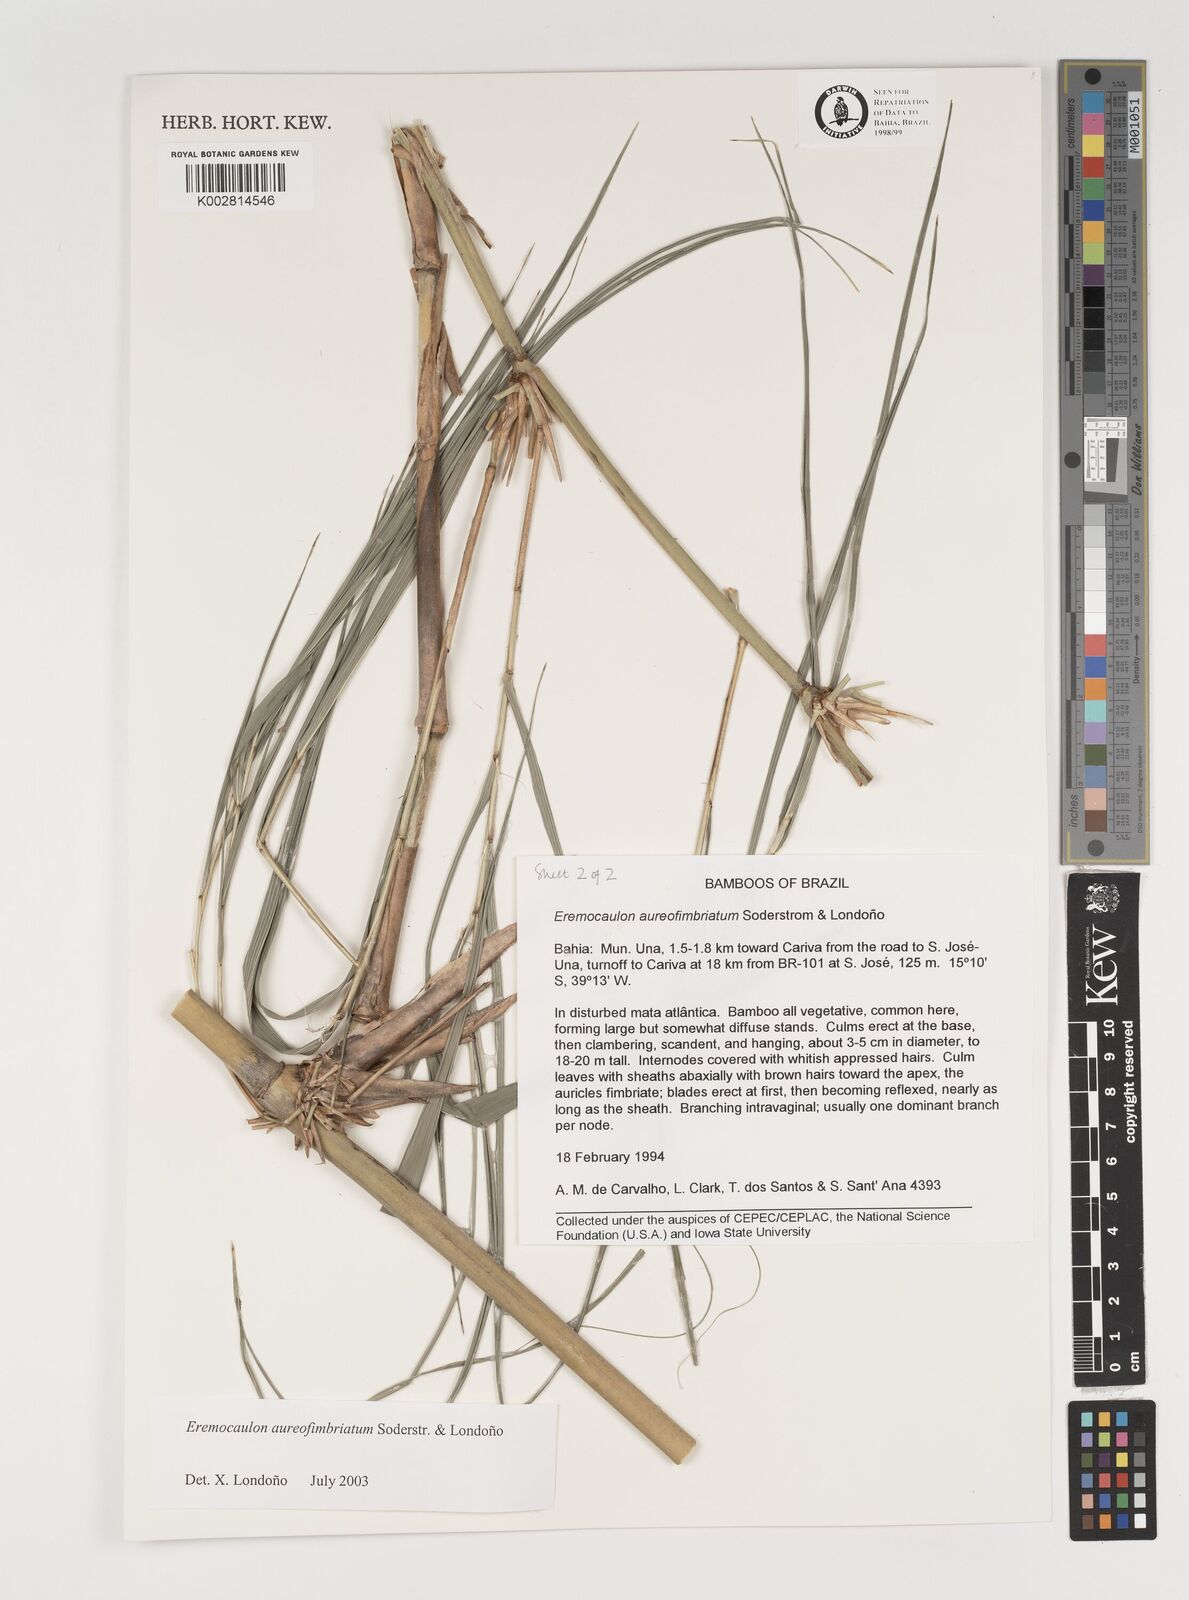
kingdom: Plantae
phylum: Tracheophyta
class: Liliopsida
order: Poales
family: Poaceae
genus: Eremocaulon
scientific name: Eremocaulon aureofimbriatum
